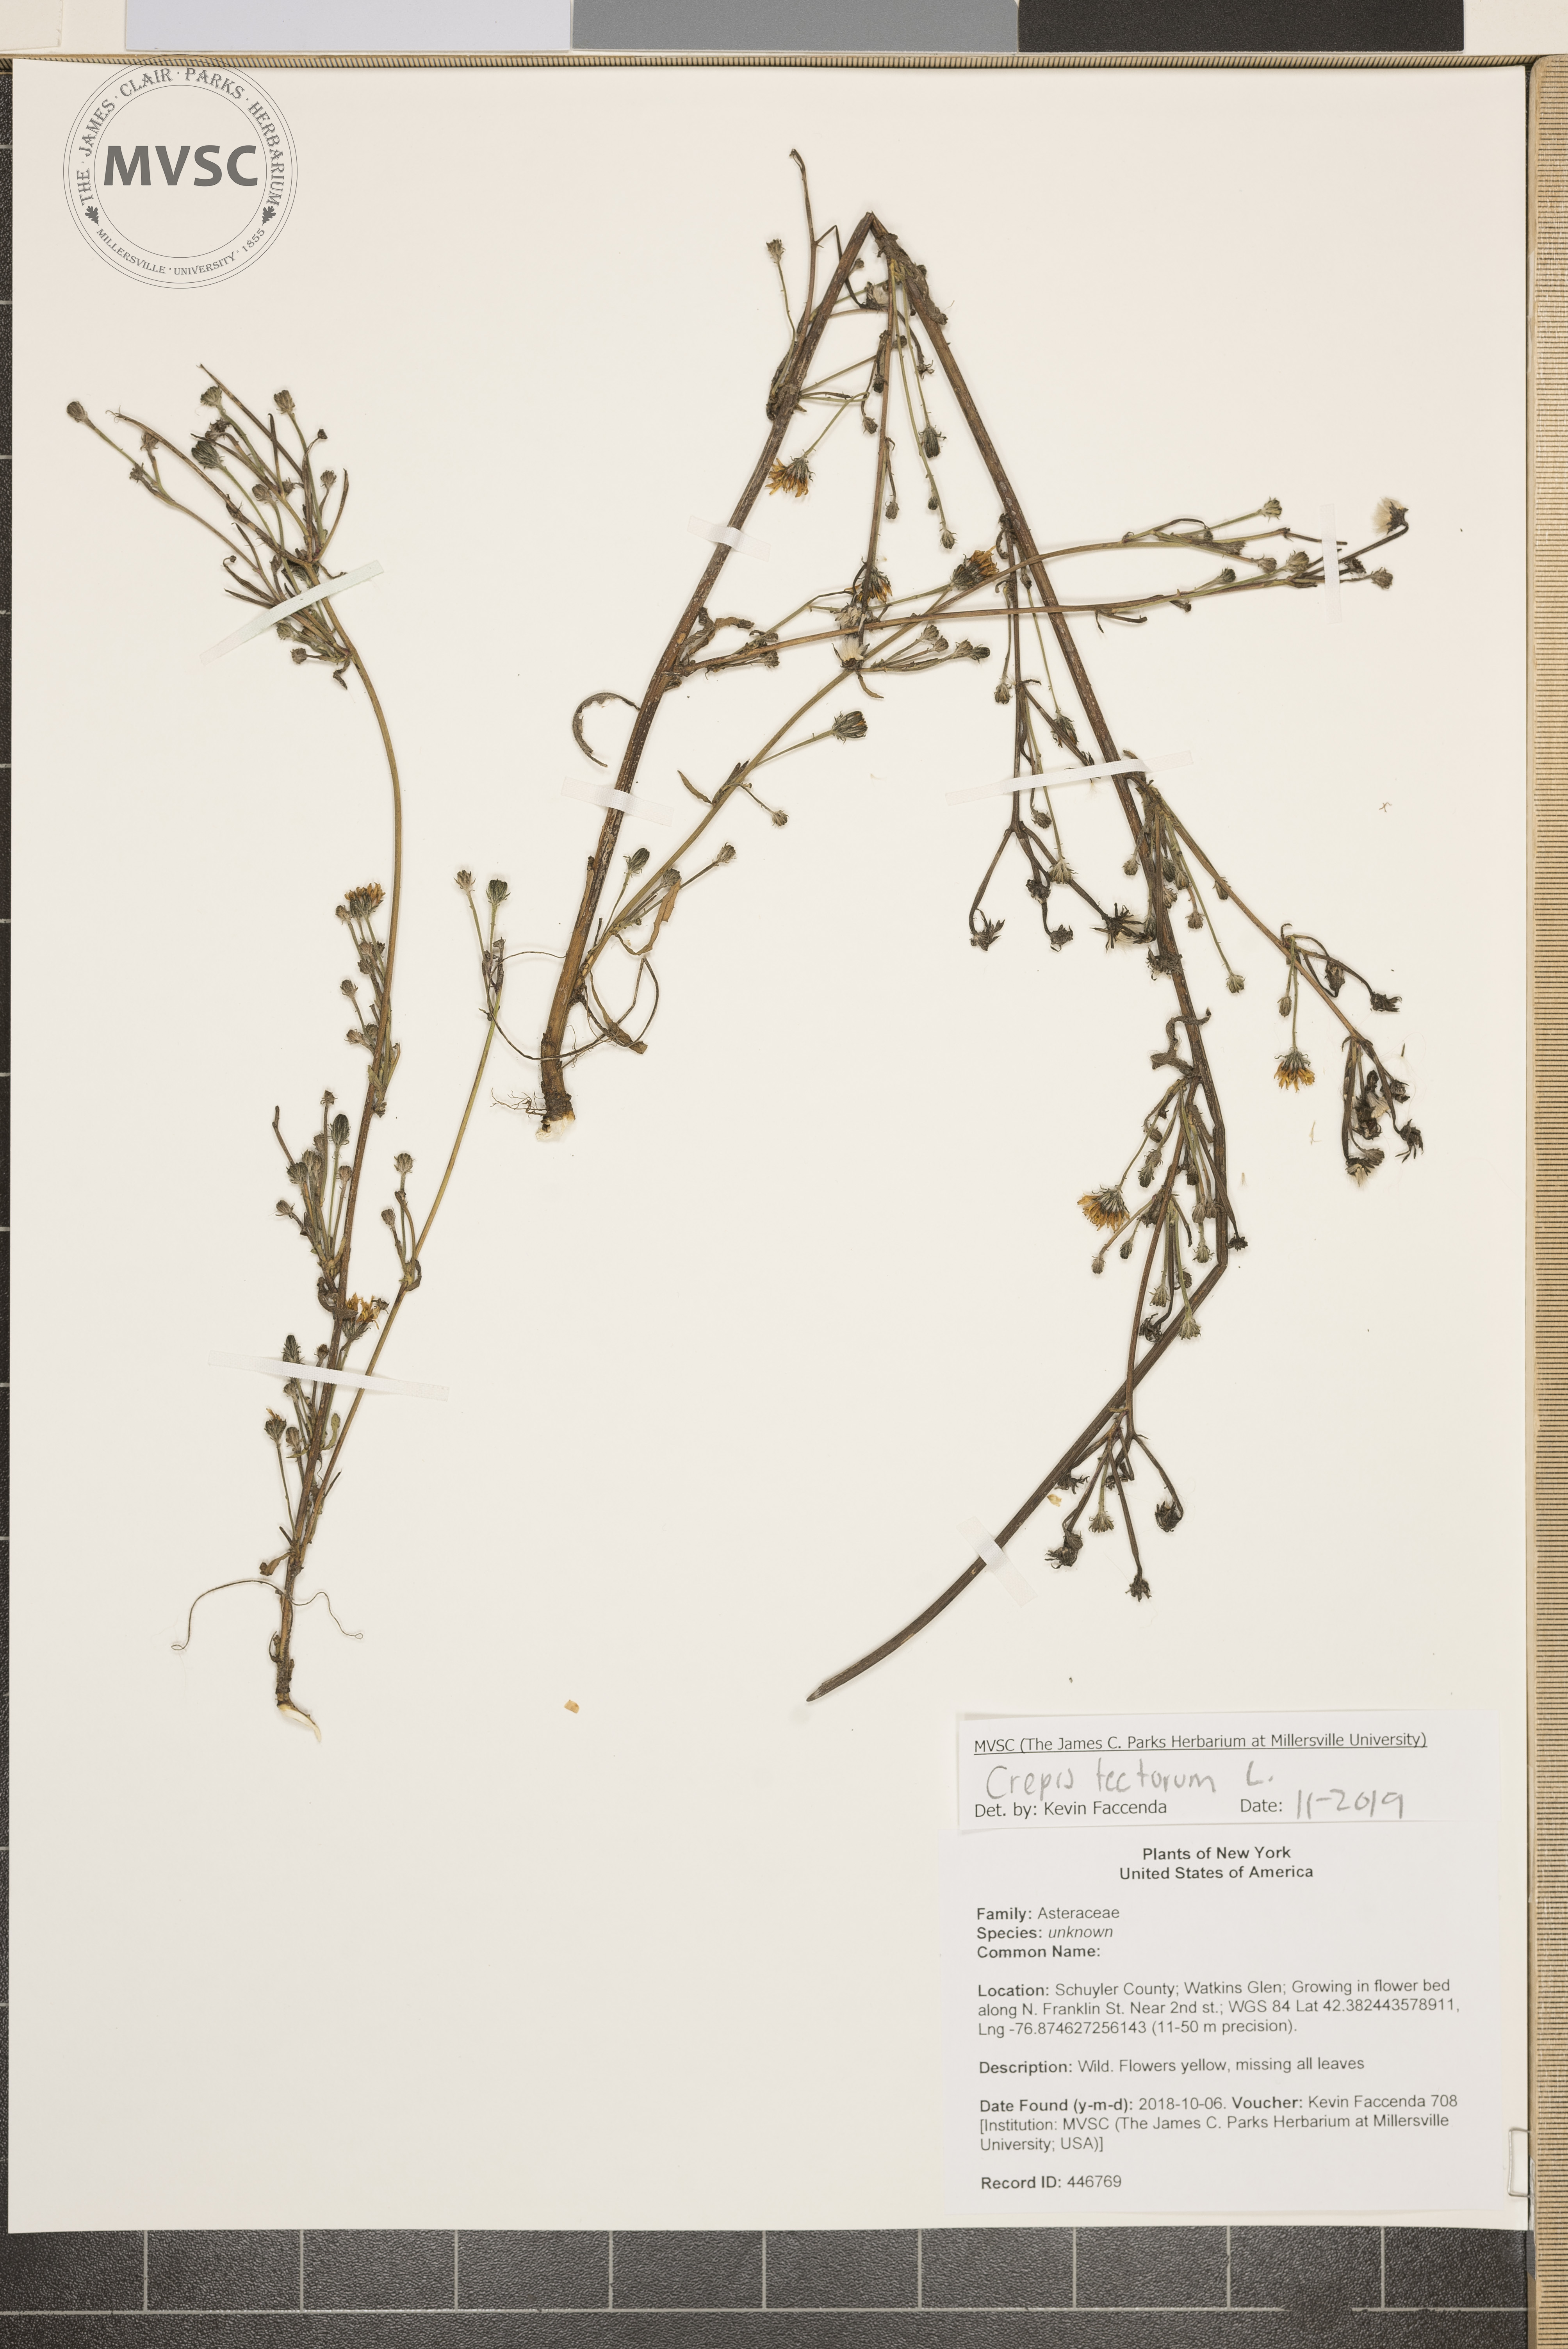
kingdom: Plantae
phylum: Tracheophyta
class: Magnoliopsida
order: Asterales
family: Asteraceae
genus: Crepis
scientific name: Crepis tectorum
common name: Narrow-leaved hawk's-beard
